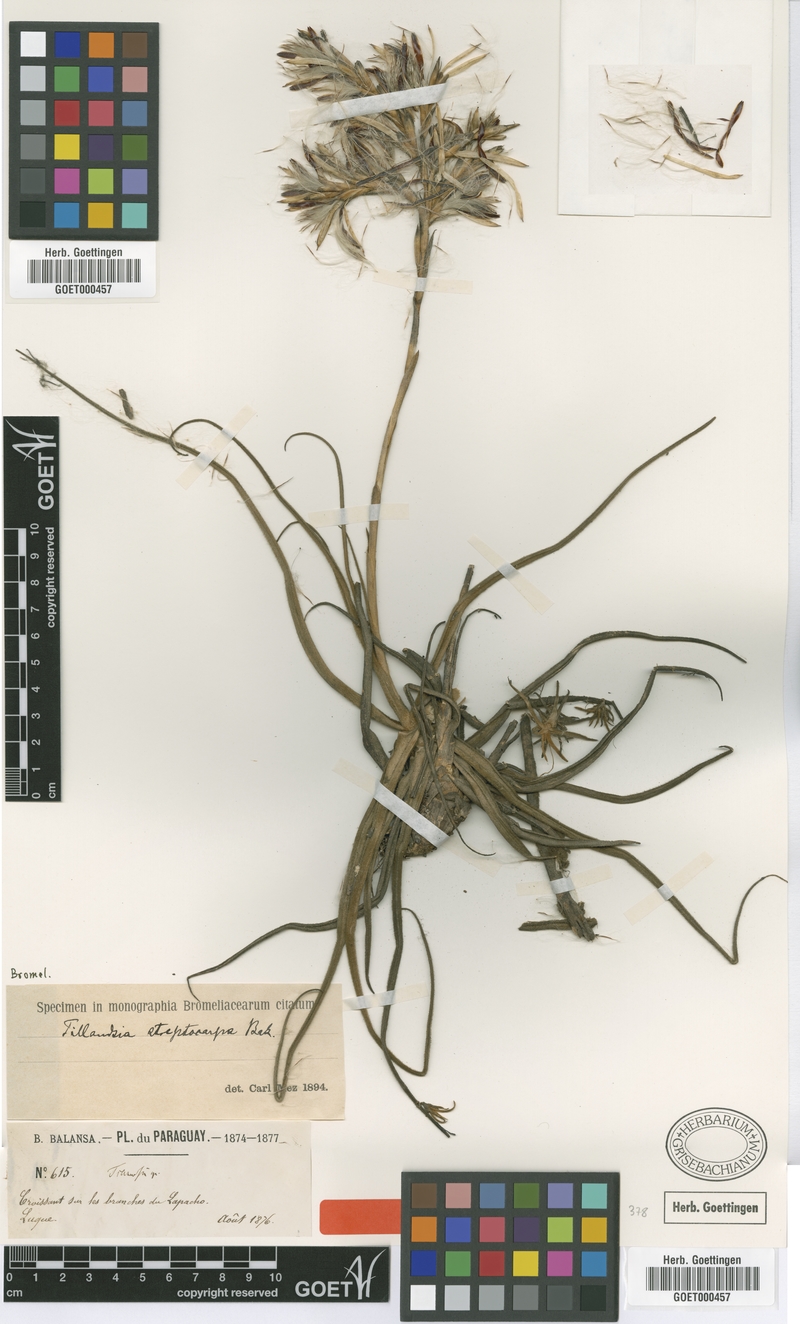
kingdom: Plantae
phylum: Tracheophyta
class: Liliopsida
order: Poales
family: Bromeliaceae
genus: Tillandsia
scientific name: Tillandsia streptocarpa
